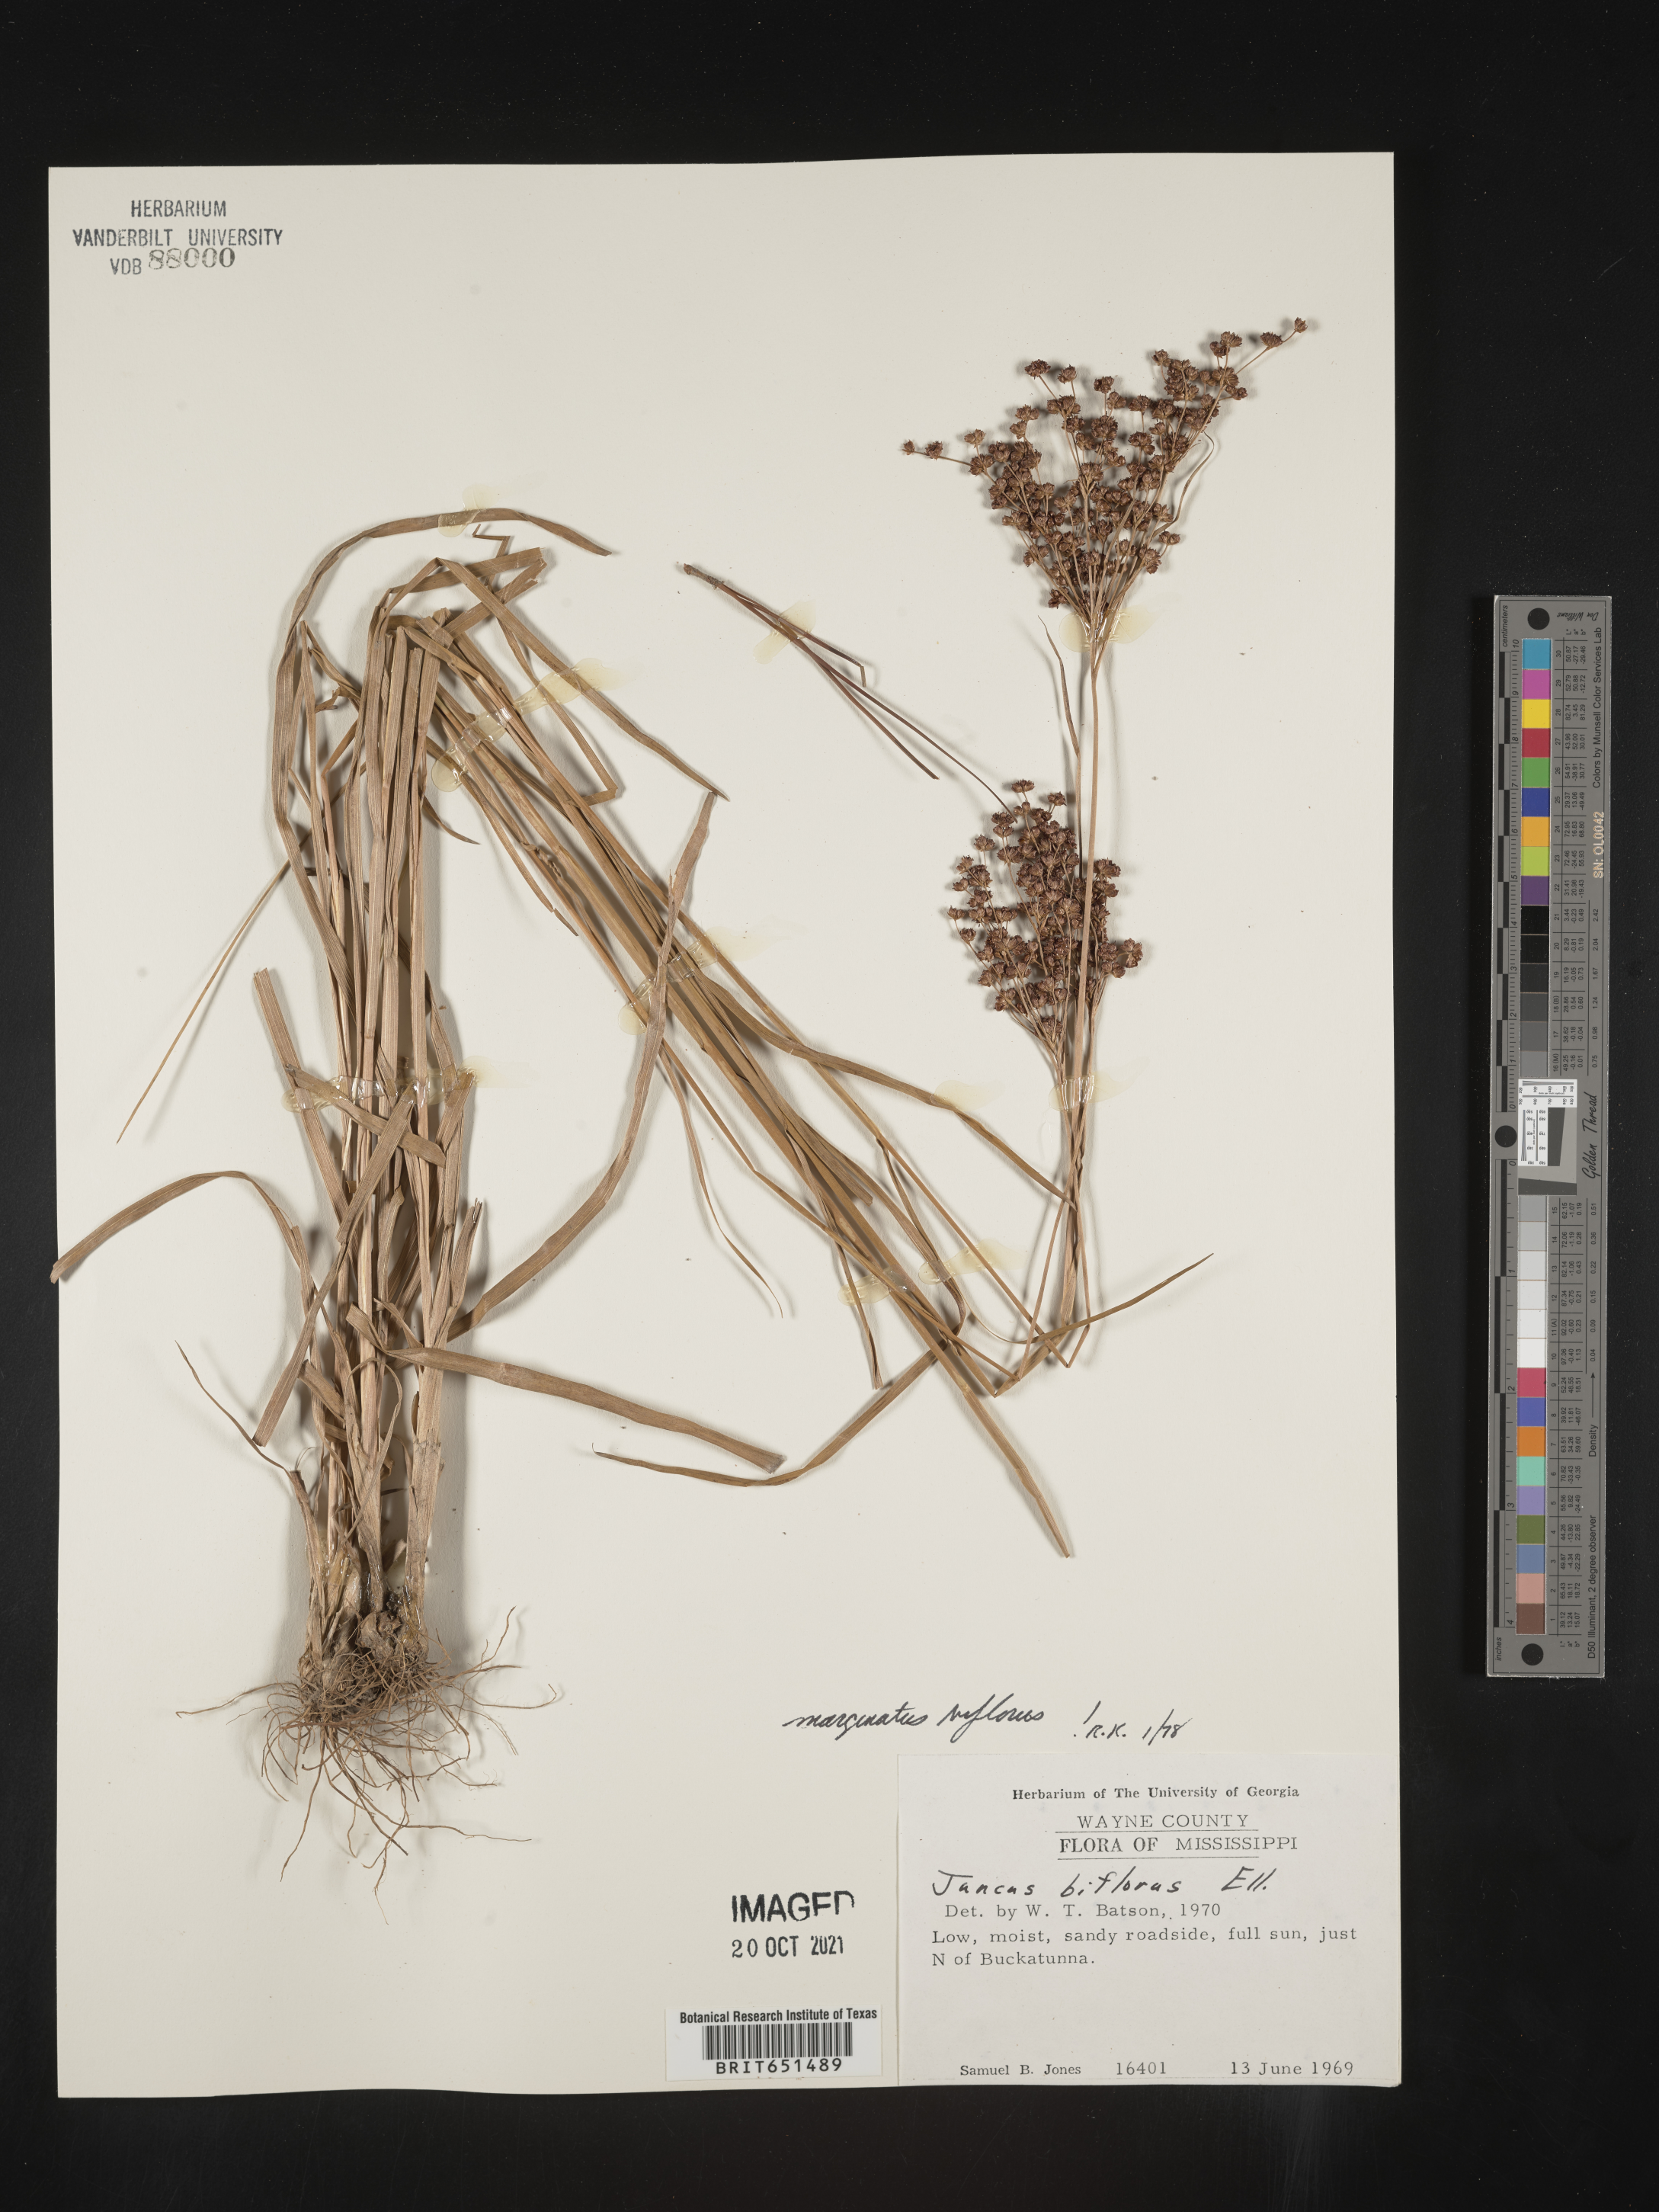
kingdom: Plantae
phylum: Tracheophyta
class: Liliopsida
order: Poales
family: Juncaceae
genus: Juncus
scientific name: Juncus biflorus
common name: Two-flowered rush
